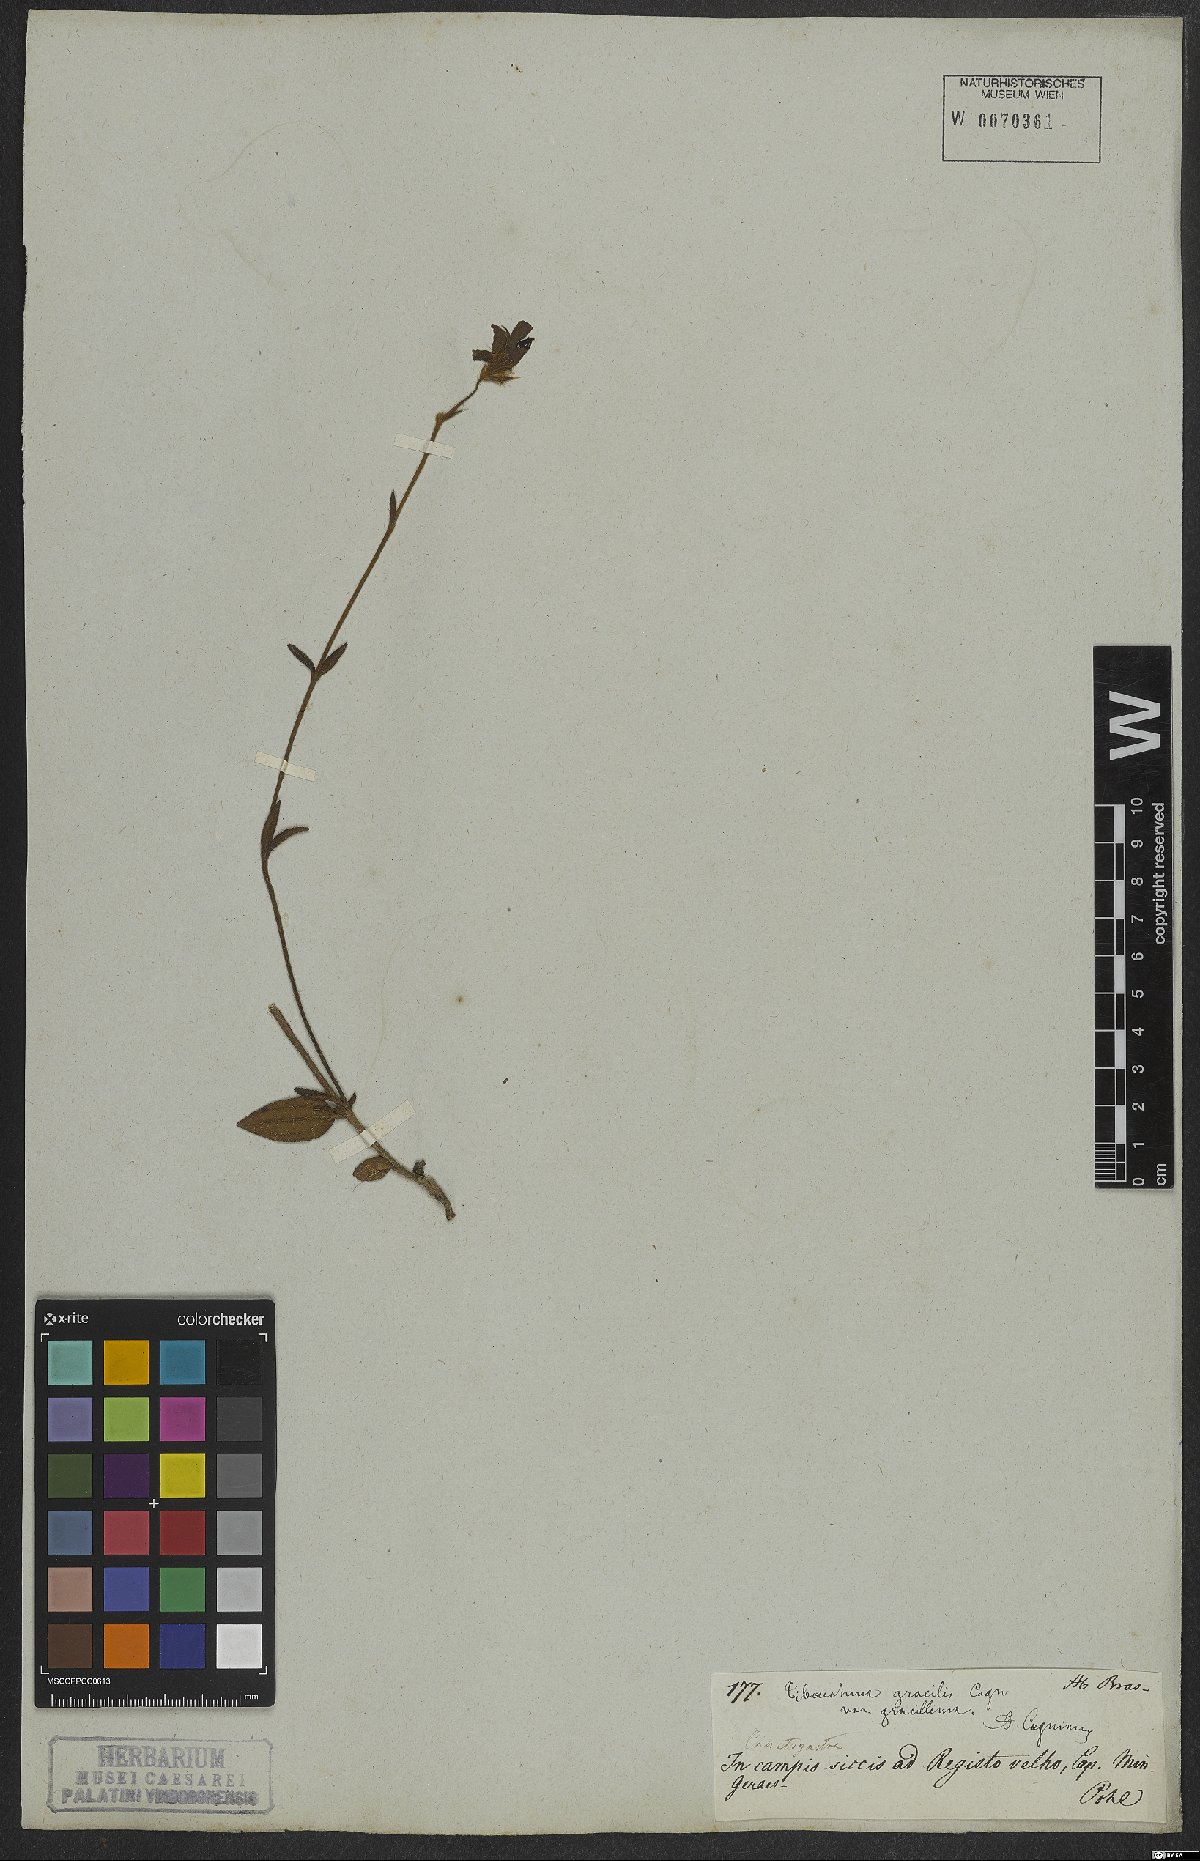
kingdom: Plantae
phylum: Tracheophyta
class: Magnoliopsida
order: Myrtales
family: Melastomataceae
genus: Chaetogastra
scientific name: Chaetogastra gracilis
